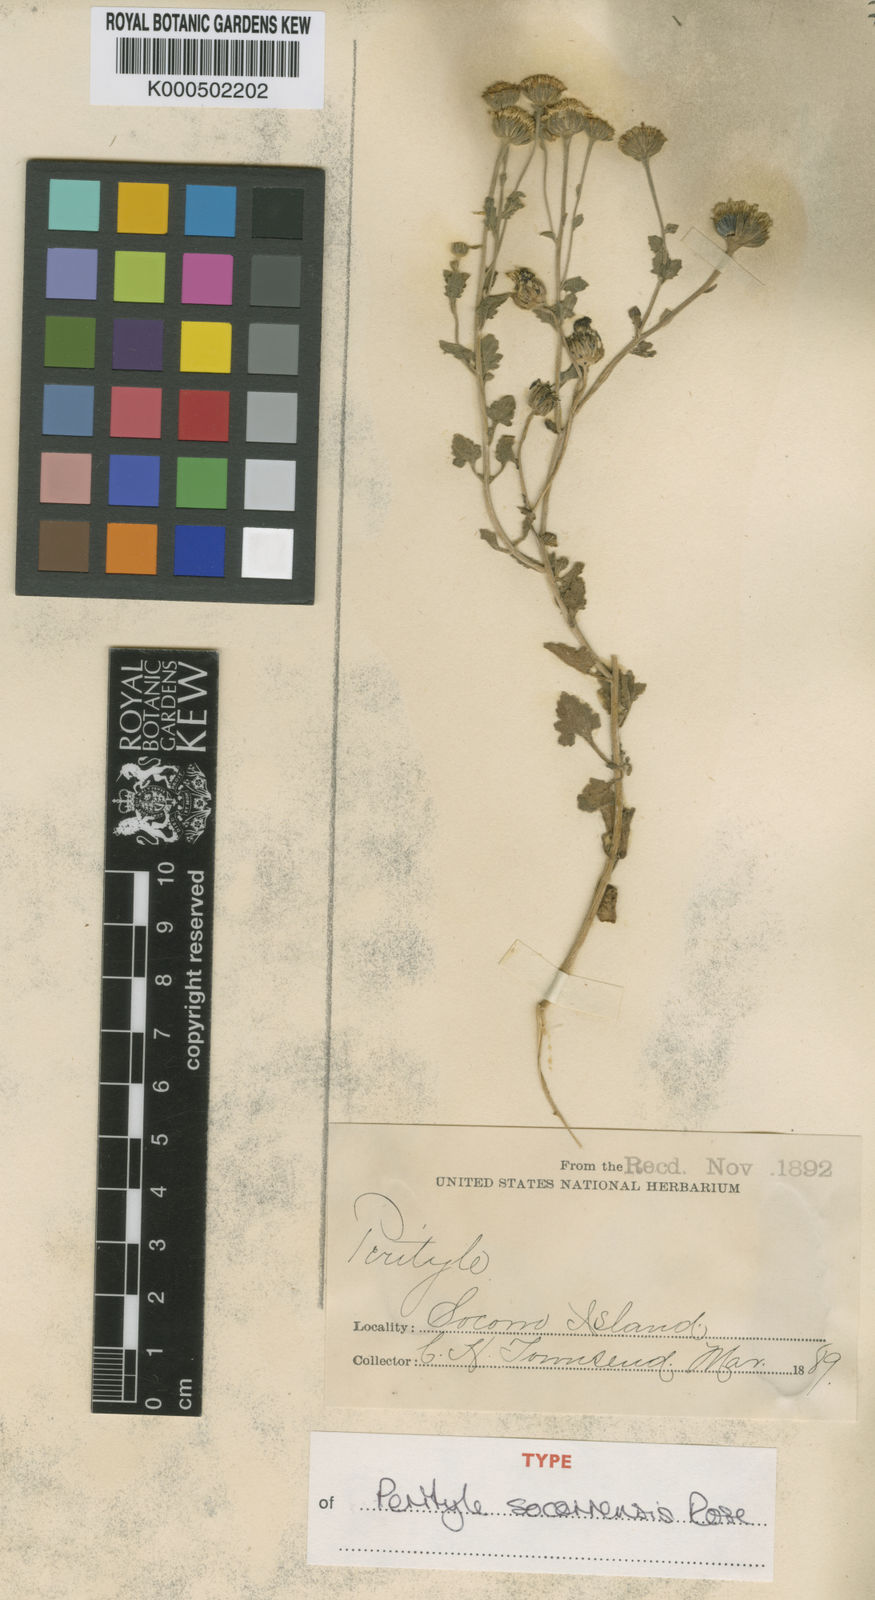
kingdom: Plantae
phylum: Tracheophyta
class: Magnoliopsida
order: Asterales
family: Asteraceae
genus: Perityle
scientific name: Perityle
